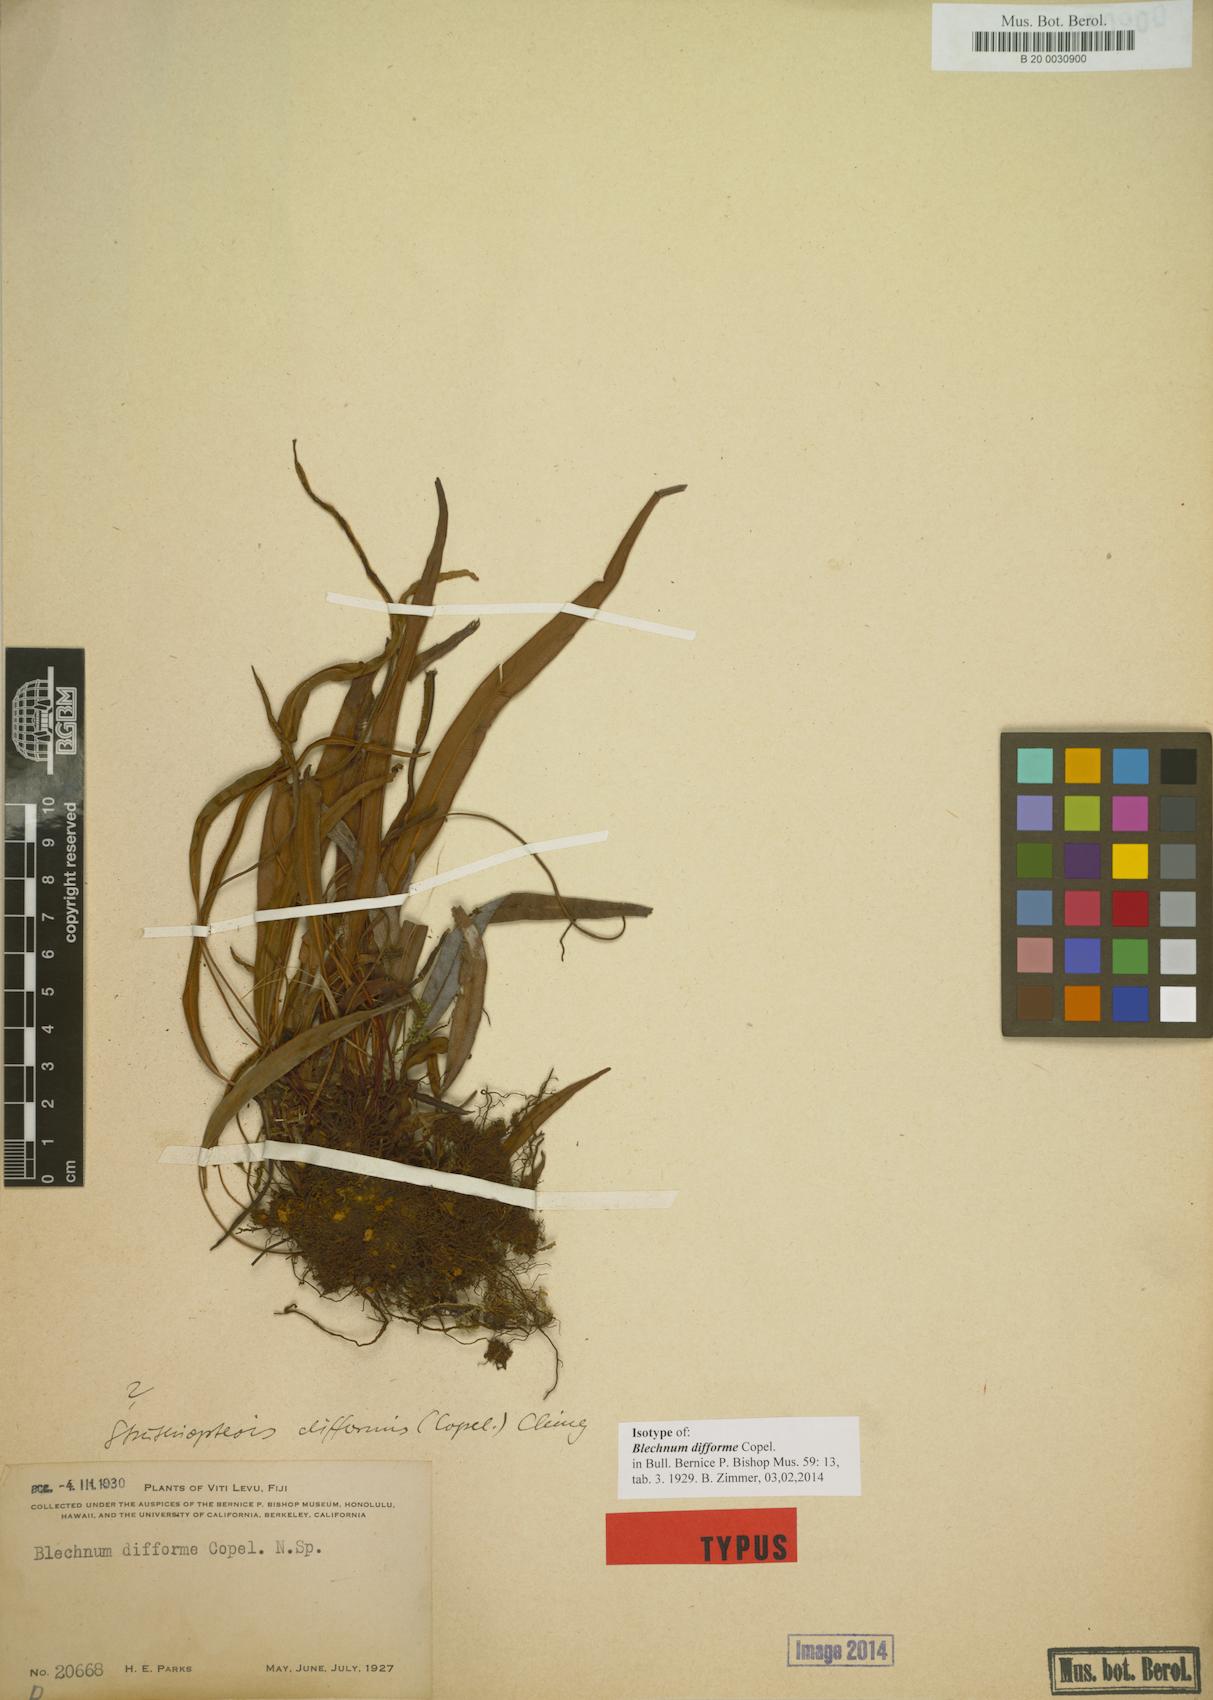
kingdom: Plantae
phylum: Tracheophyta
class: Polypodiopsida
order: Polypodiales
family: Blechnaceae
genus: Austroblechnum
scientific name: Austroblechnum difforme
